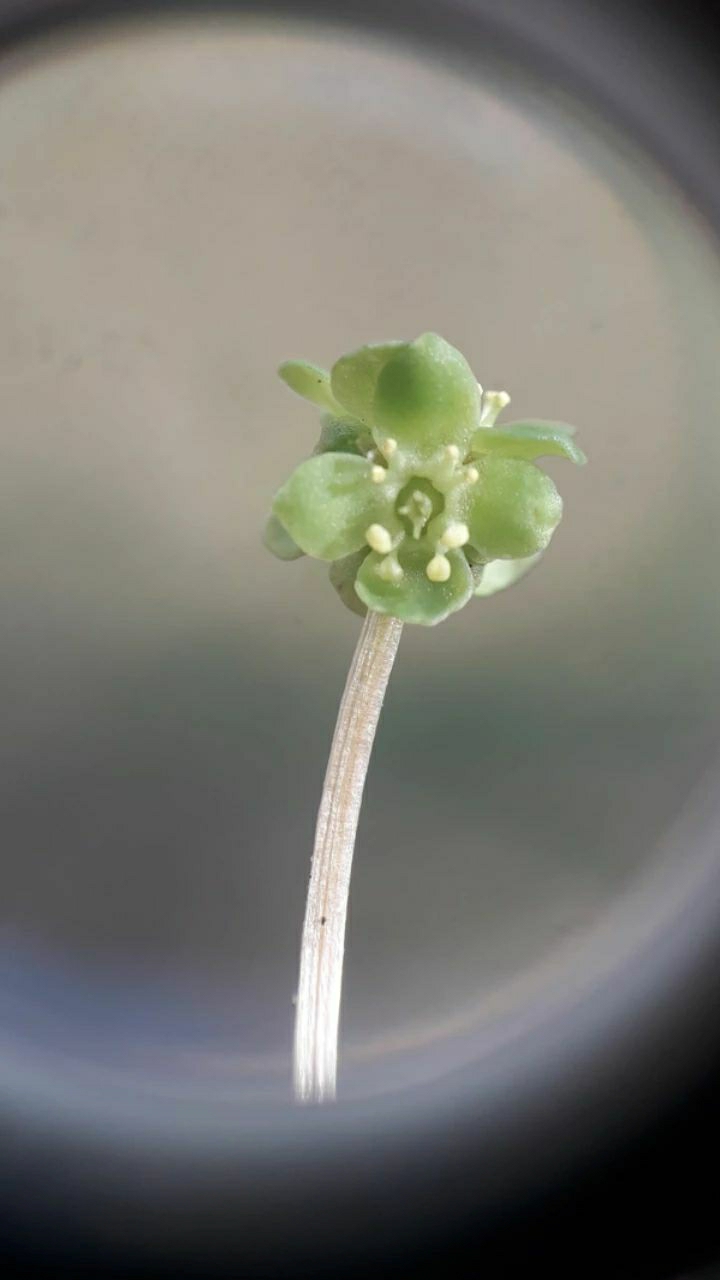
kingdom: Plantae
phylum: Tracheophyta
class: Magnoliopsida
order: Dipsacales
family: Viburnaceae
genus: Adoxa
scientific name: Adoxa moschatellina
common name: Desmerurt
